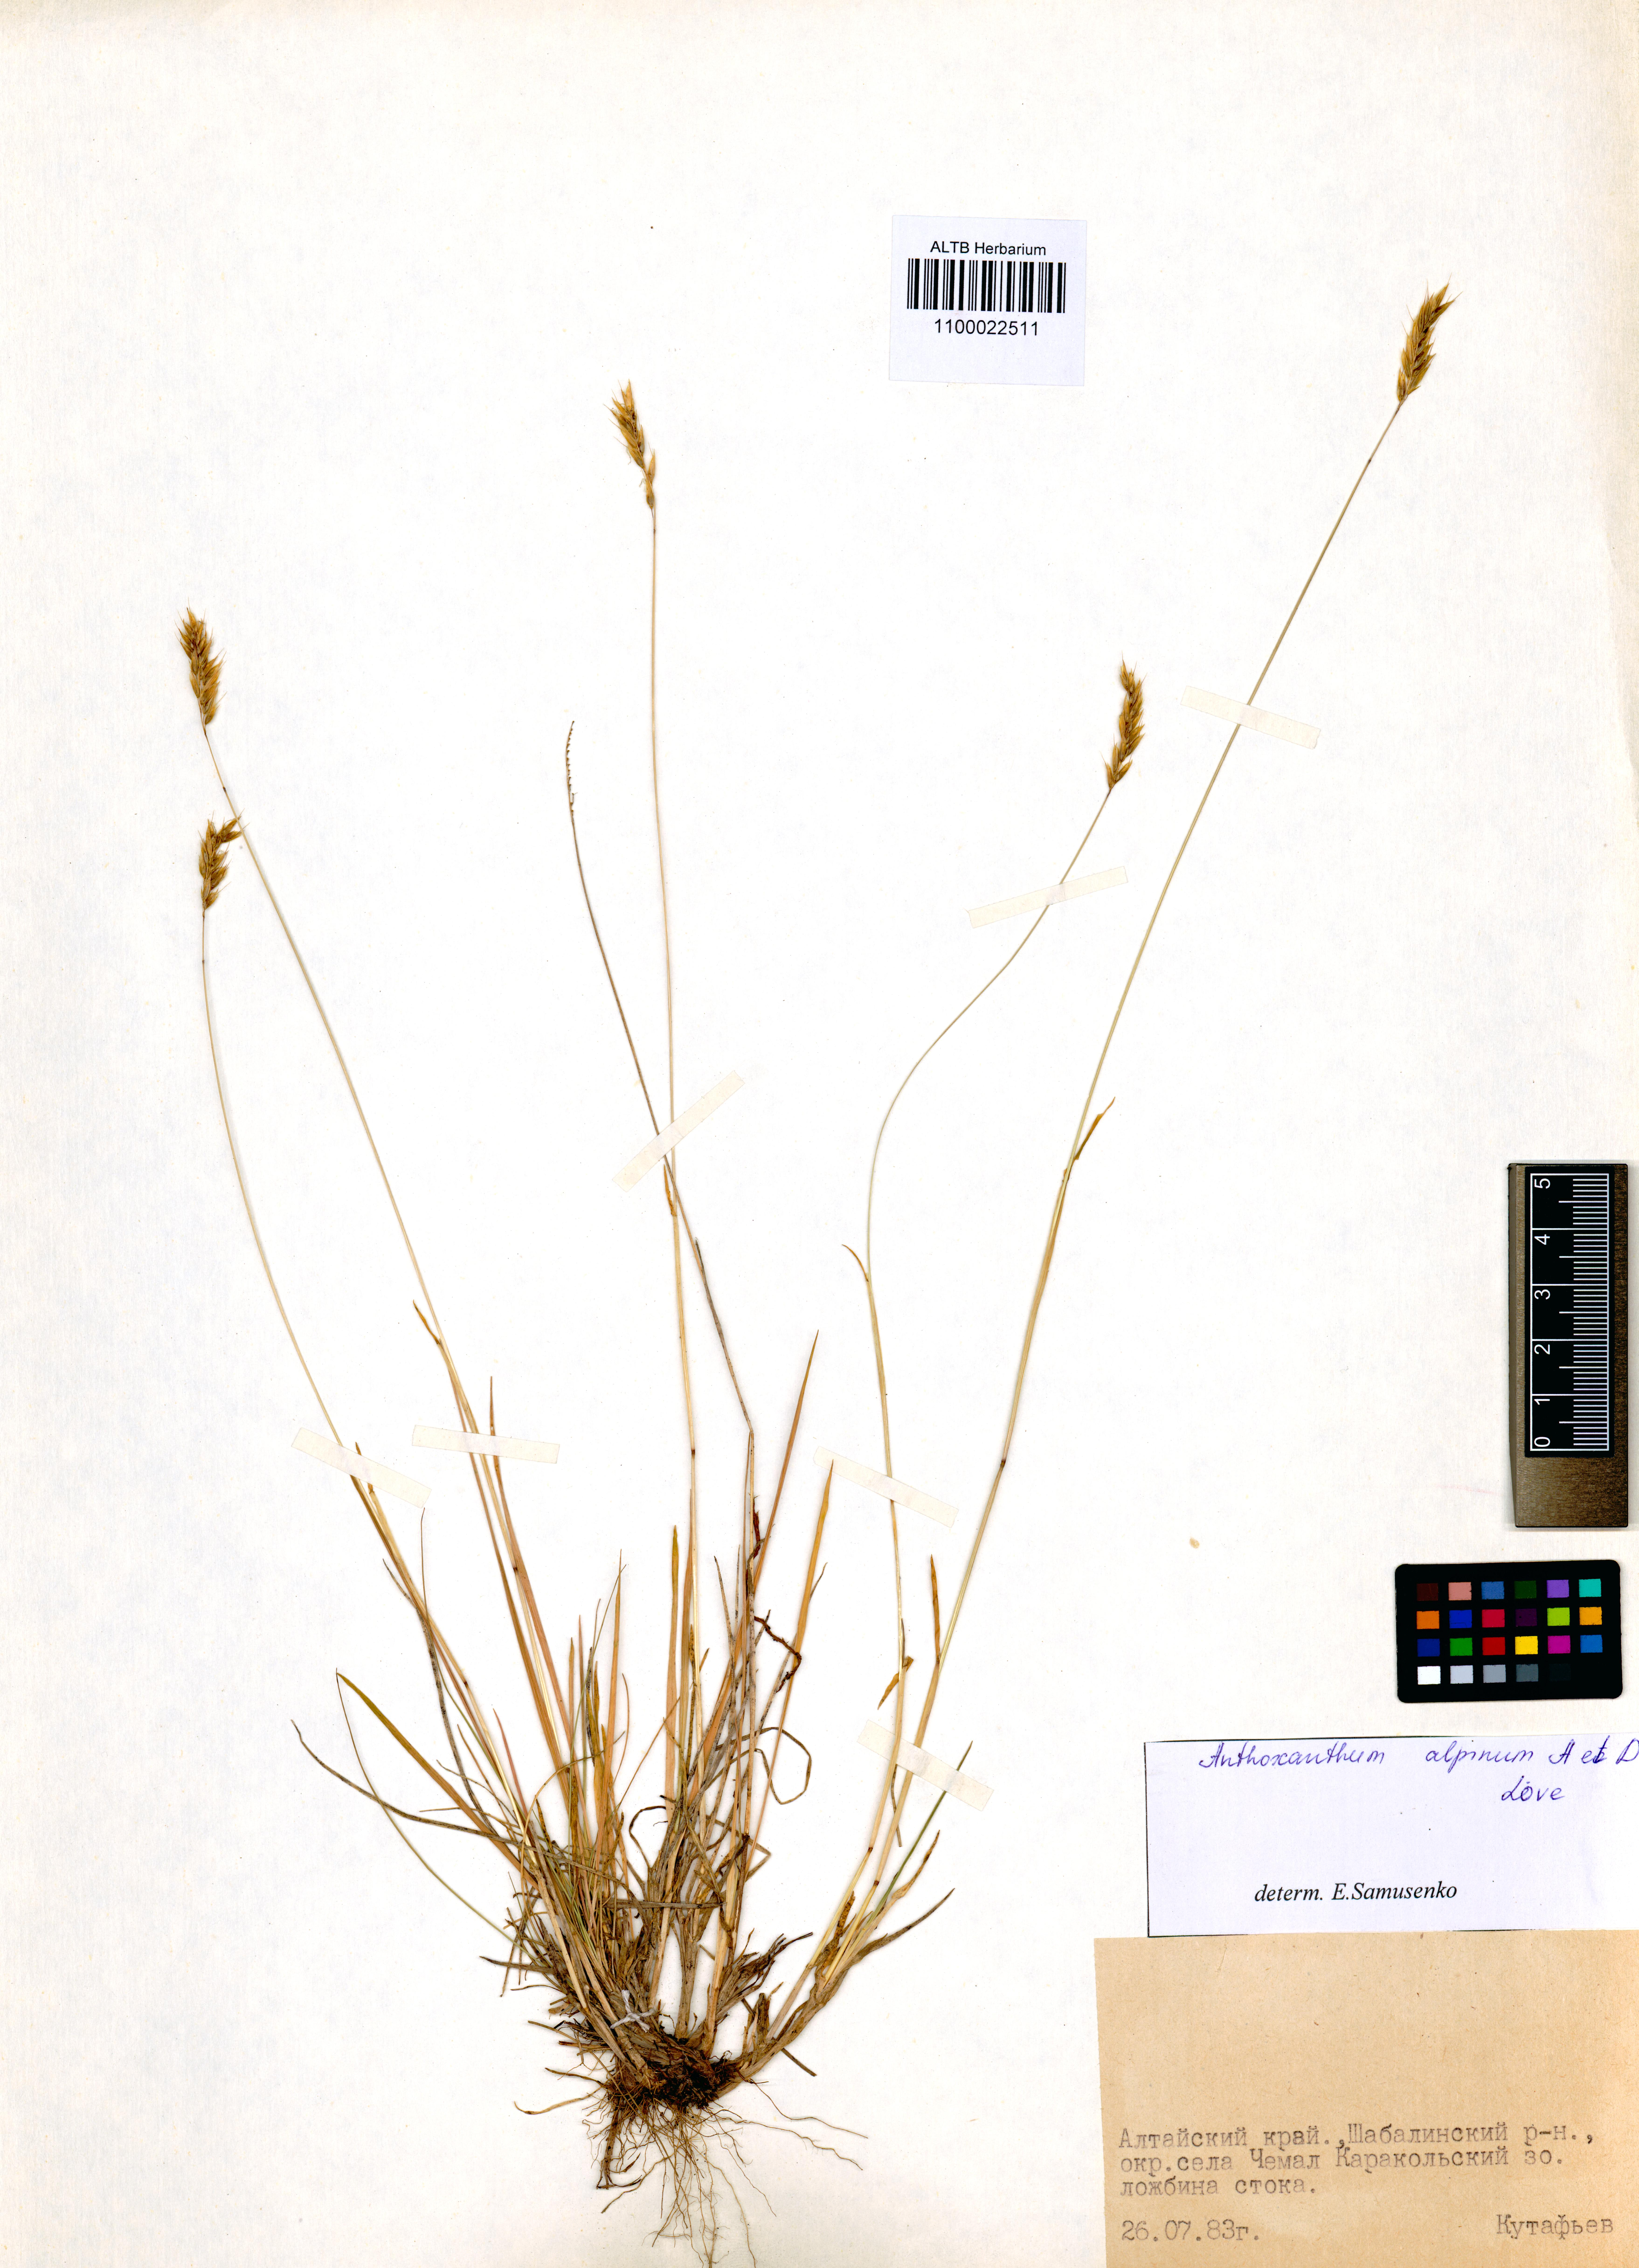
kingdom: Plantae
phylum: Tracheophyta
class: Liliopsida
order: Poales
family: Poaceae
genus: Anthoxanthum
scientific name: Anthoxanthum nipponicum
